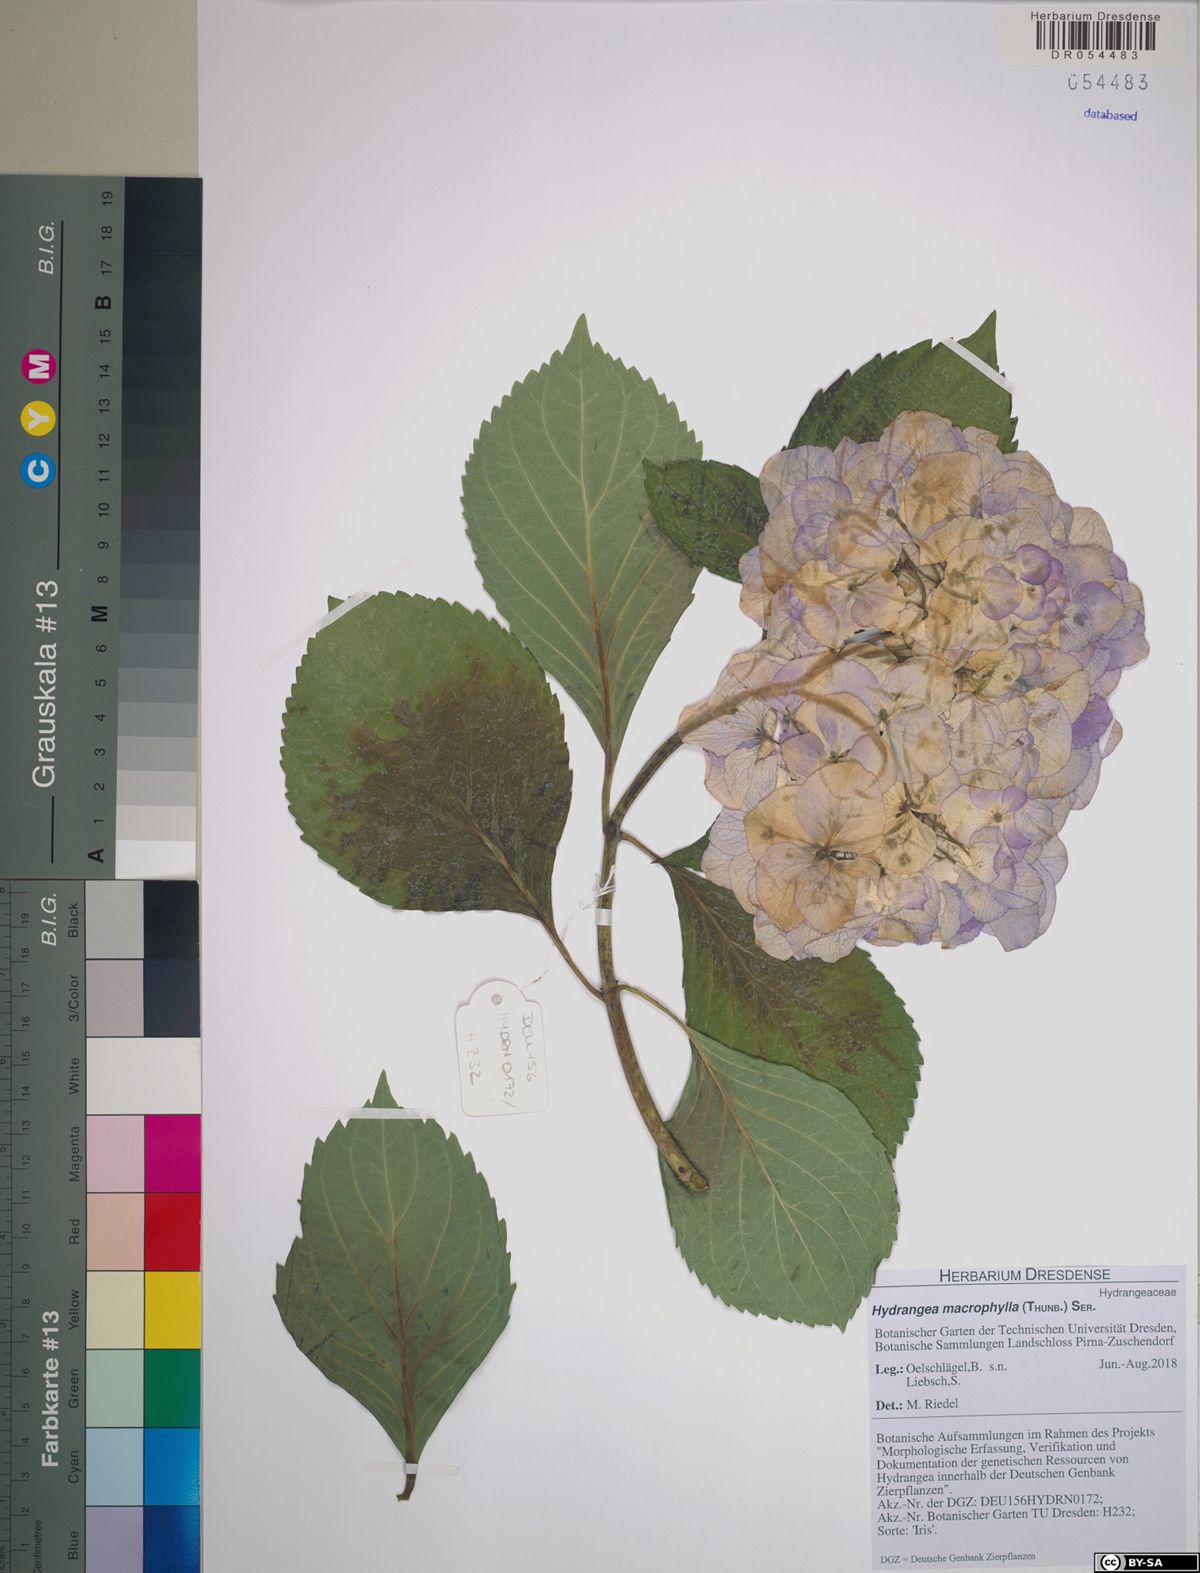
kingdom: Plantae
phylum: Tracheophyta
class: Magnoliopsida
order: Cornales
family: Hydrangeaceae
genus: Hydrangea
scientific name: Hydrangea macrophylla
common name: Hydrangea
